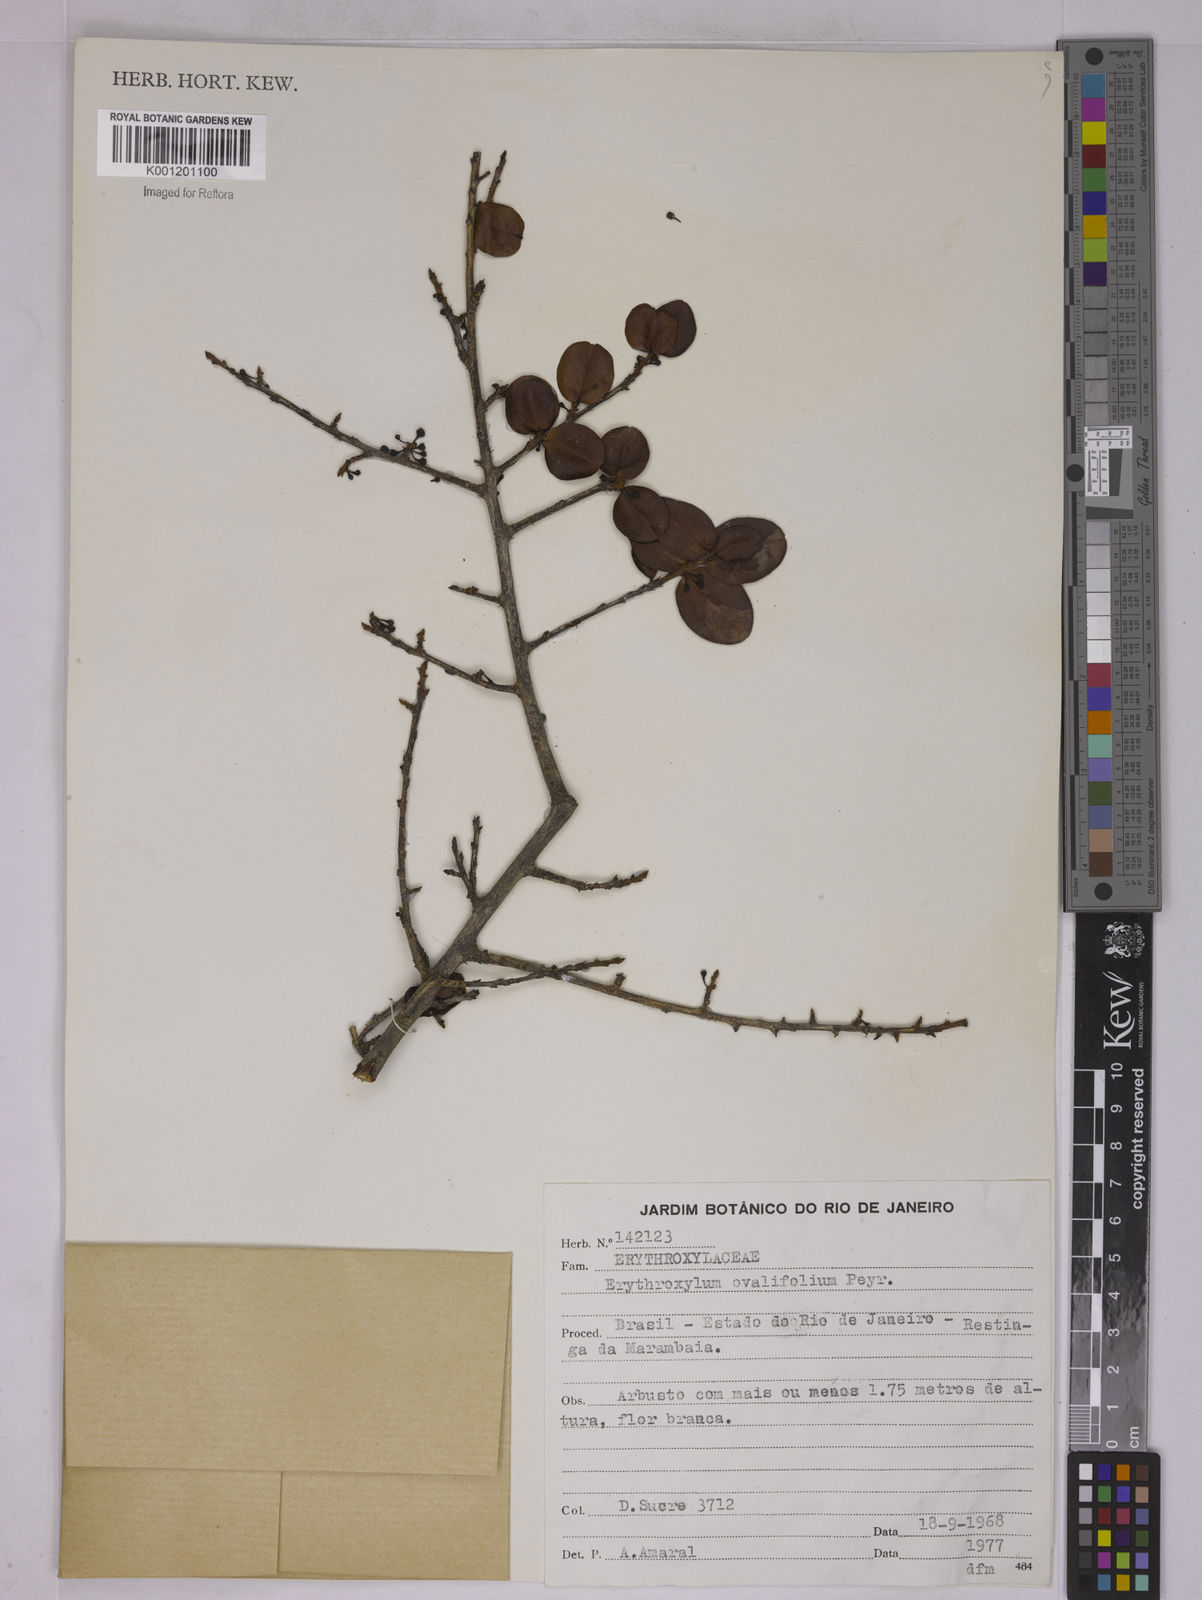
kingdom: Plantae
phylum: Tracheophyta
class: Magnoliopsida
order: Malpighiales
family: Erythroxylaceae
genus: Erythroxylum
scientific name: Erythroxylum ovalifolium
